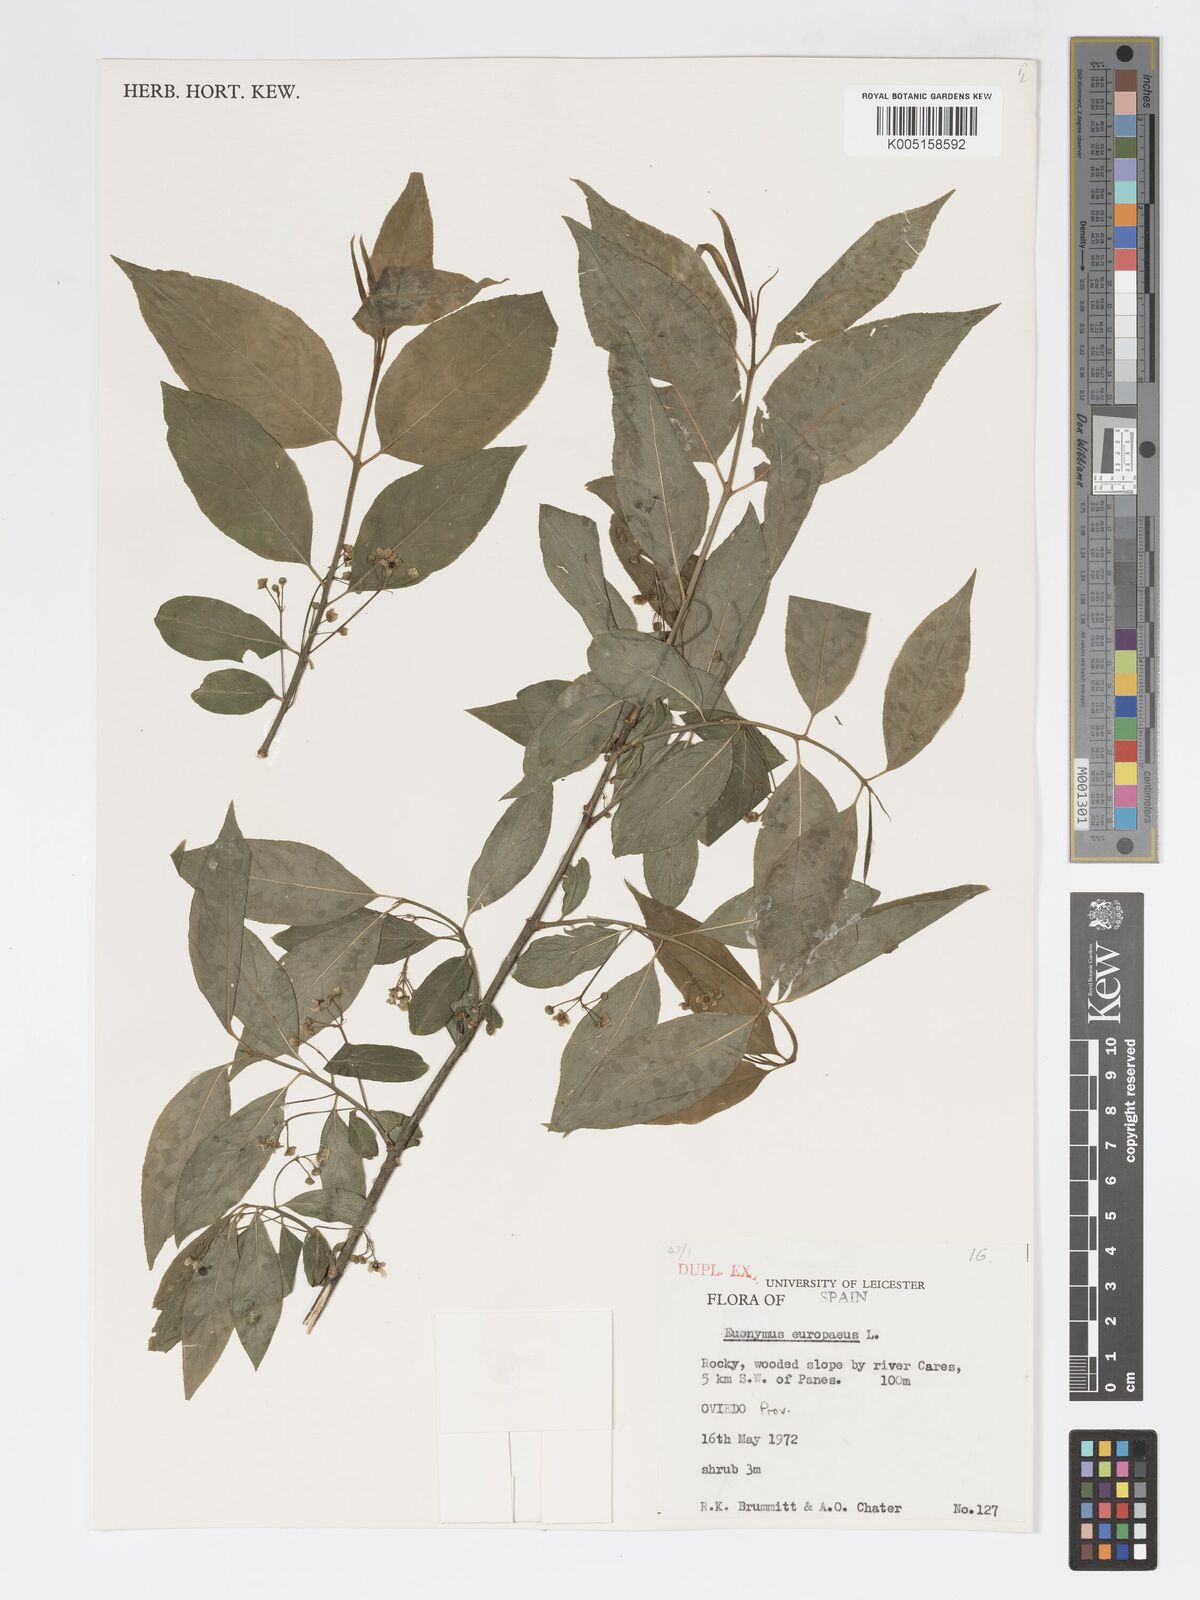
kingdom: Plantae
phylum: Tracheophyta
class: Magnoliopsida
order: Celastrales
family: Celastraceae
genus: Euonymus
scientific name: Euonymus europaeus
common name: Spindle
